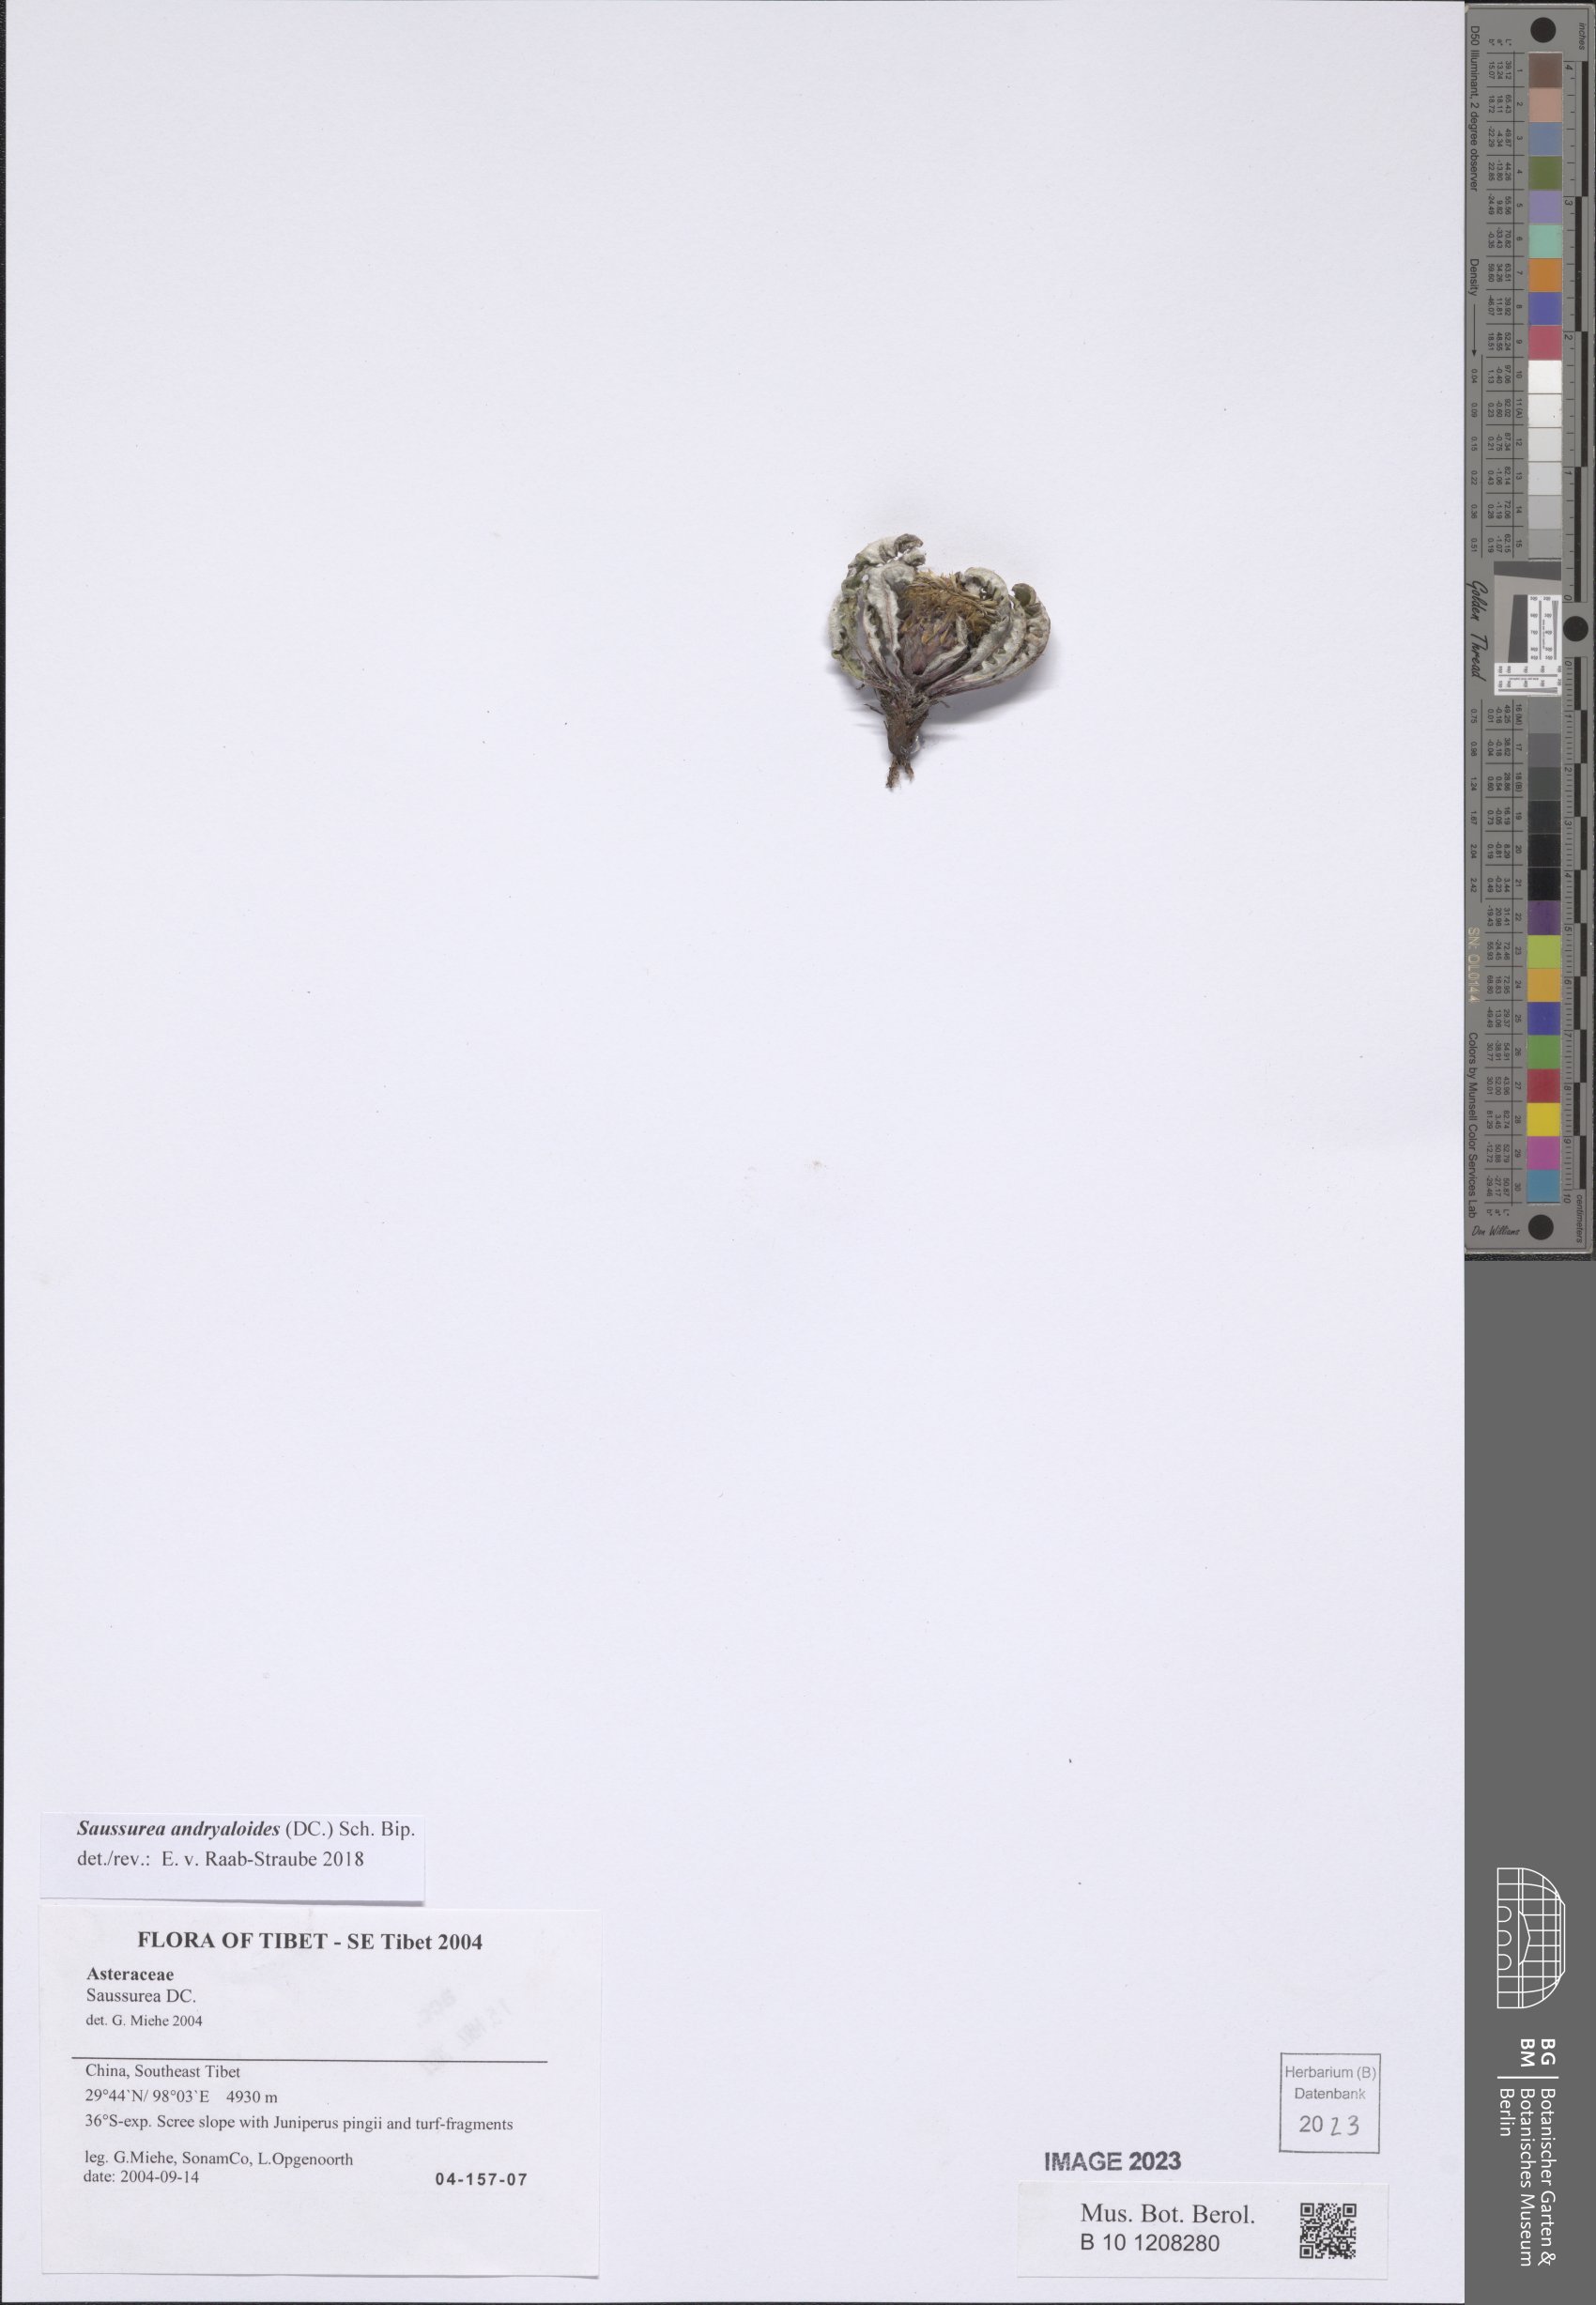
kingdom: Plantae
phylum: Tracheophyta
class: Magnoliopsida
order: Asterales
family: Asteraceae
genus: Saussurea
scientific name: Saussurea andryaloides
